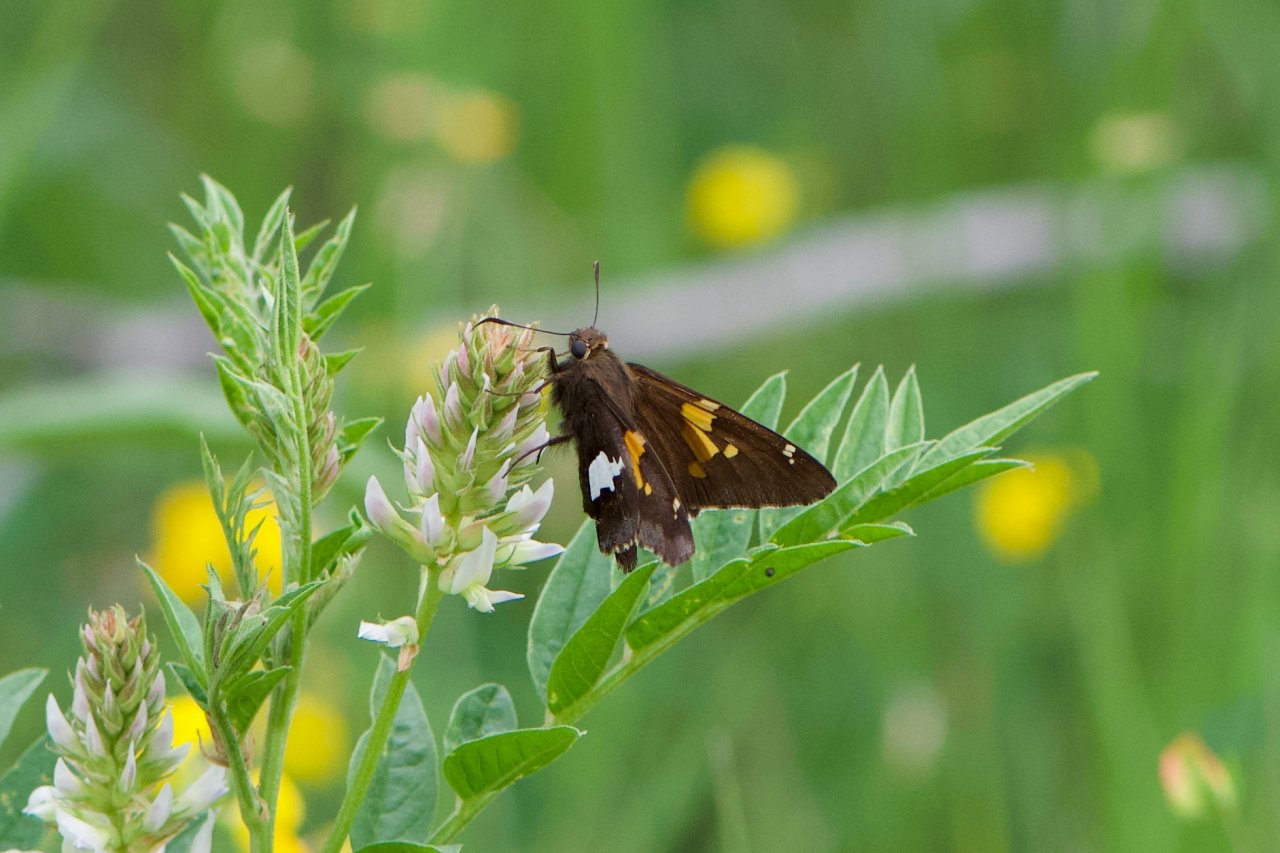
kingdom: Animalia
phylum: Arthropoda
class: Insecta
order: Lepidoptera
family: Hesperiidae
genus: Epargyreus
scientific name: Epargyreus clarus
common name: Silver-spotted Skipper
